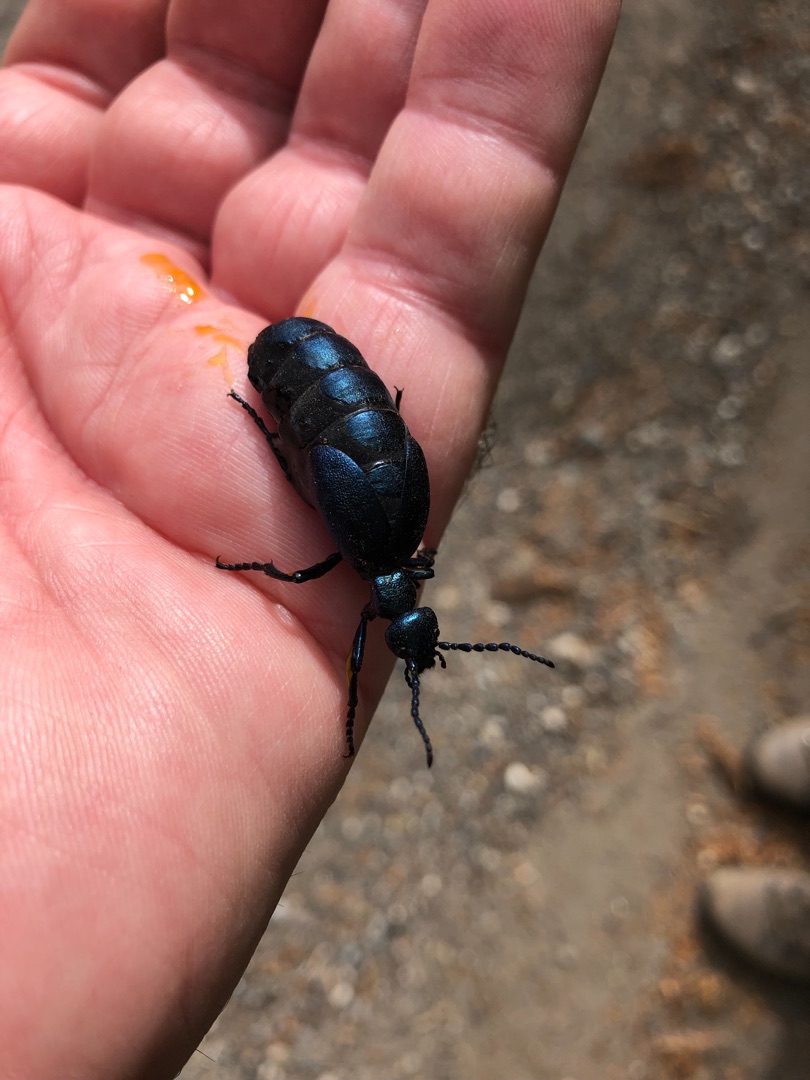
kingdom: Animalia
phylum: Arthropoda
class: Insecta
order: Coleoptera
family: Meloidae
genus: Meloe
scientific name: Meloe violaceus
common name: Blå oliebille
